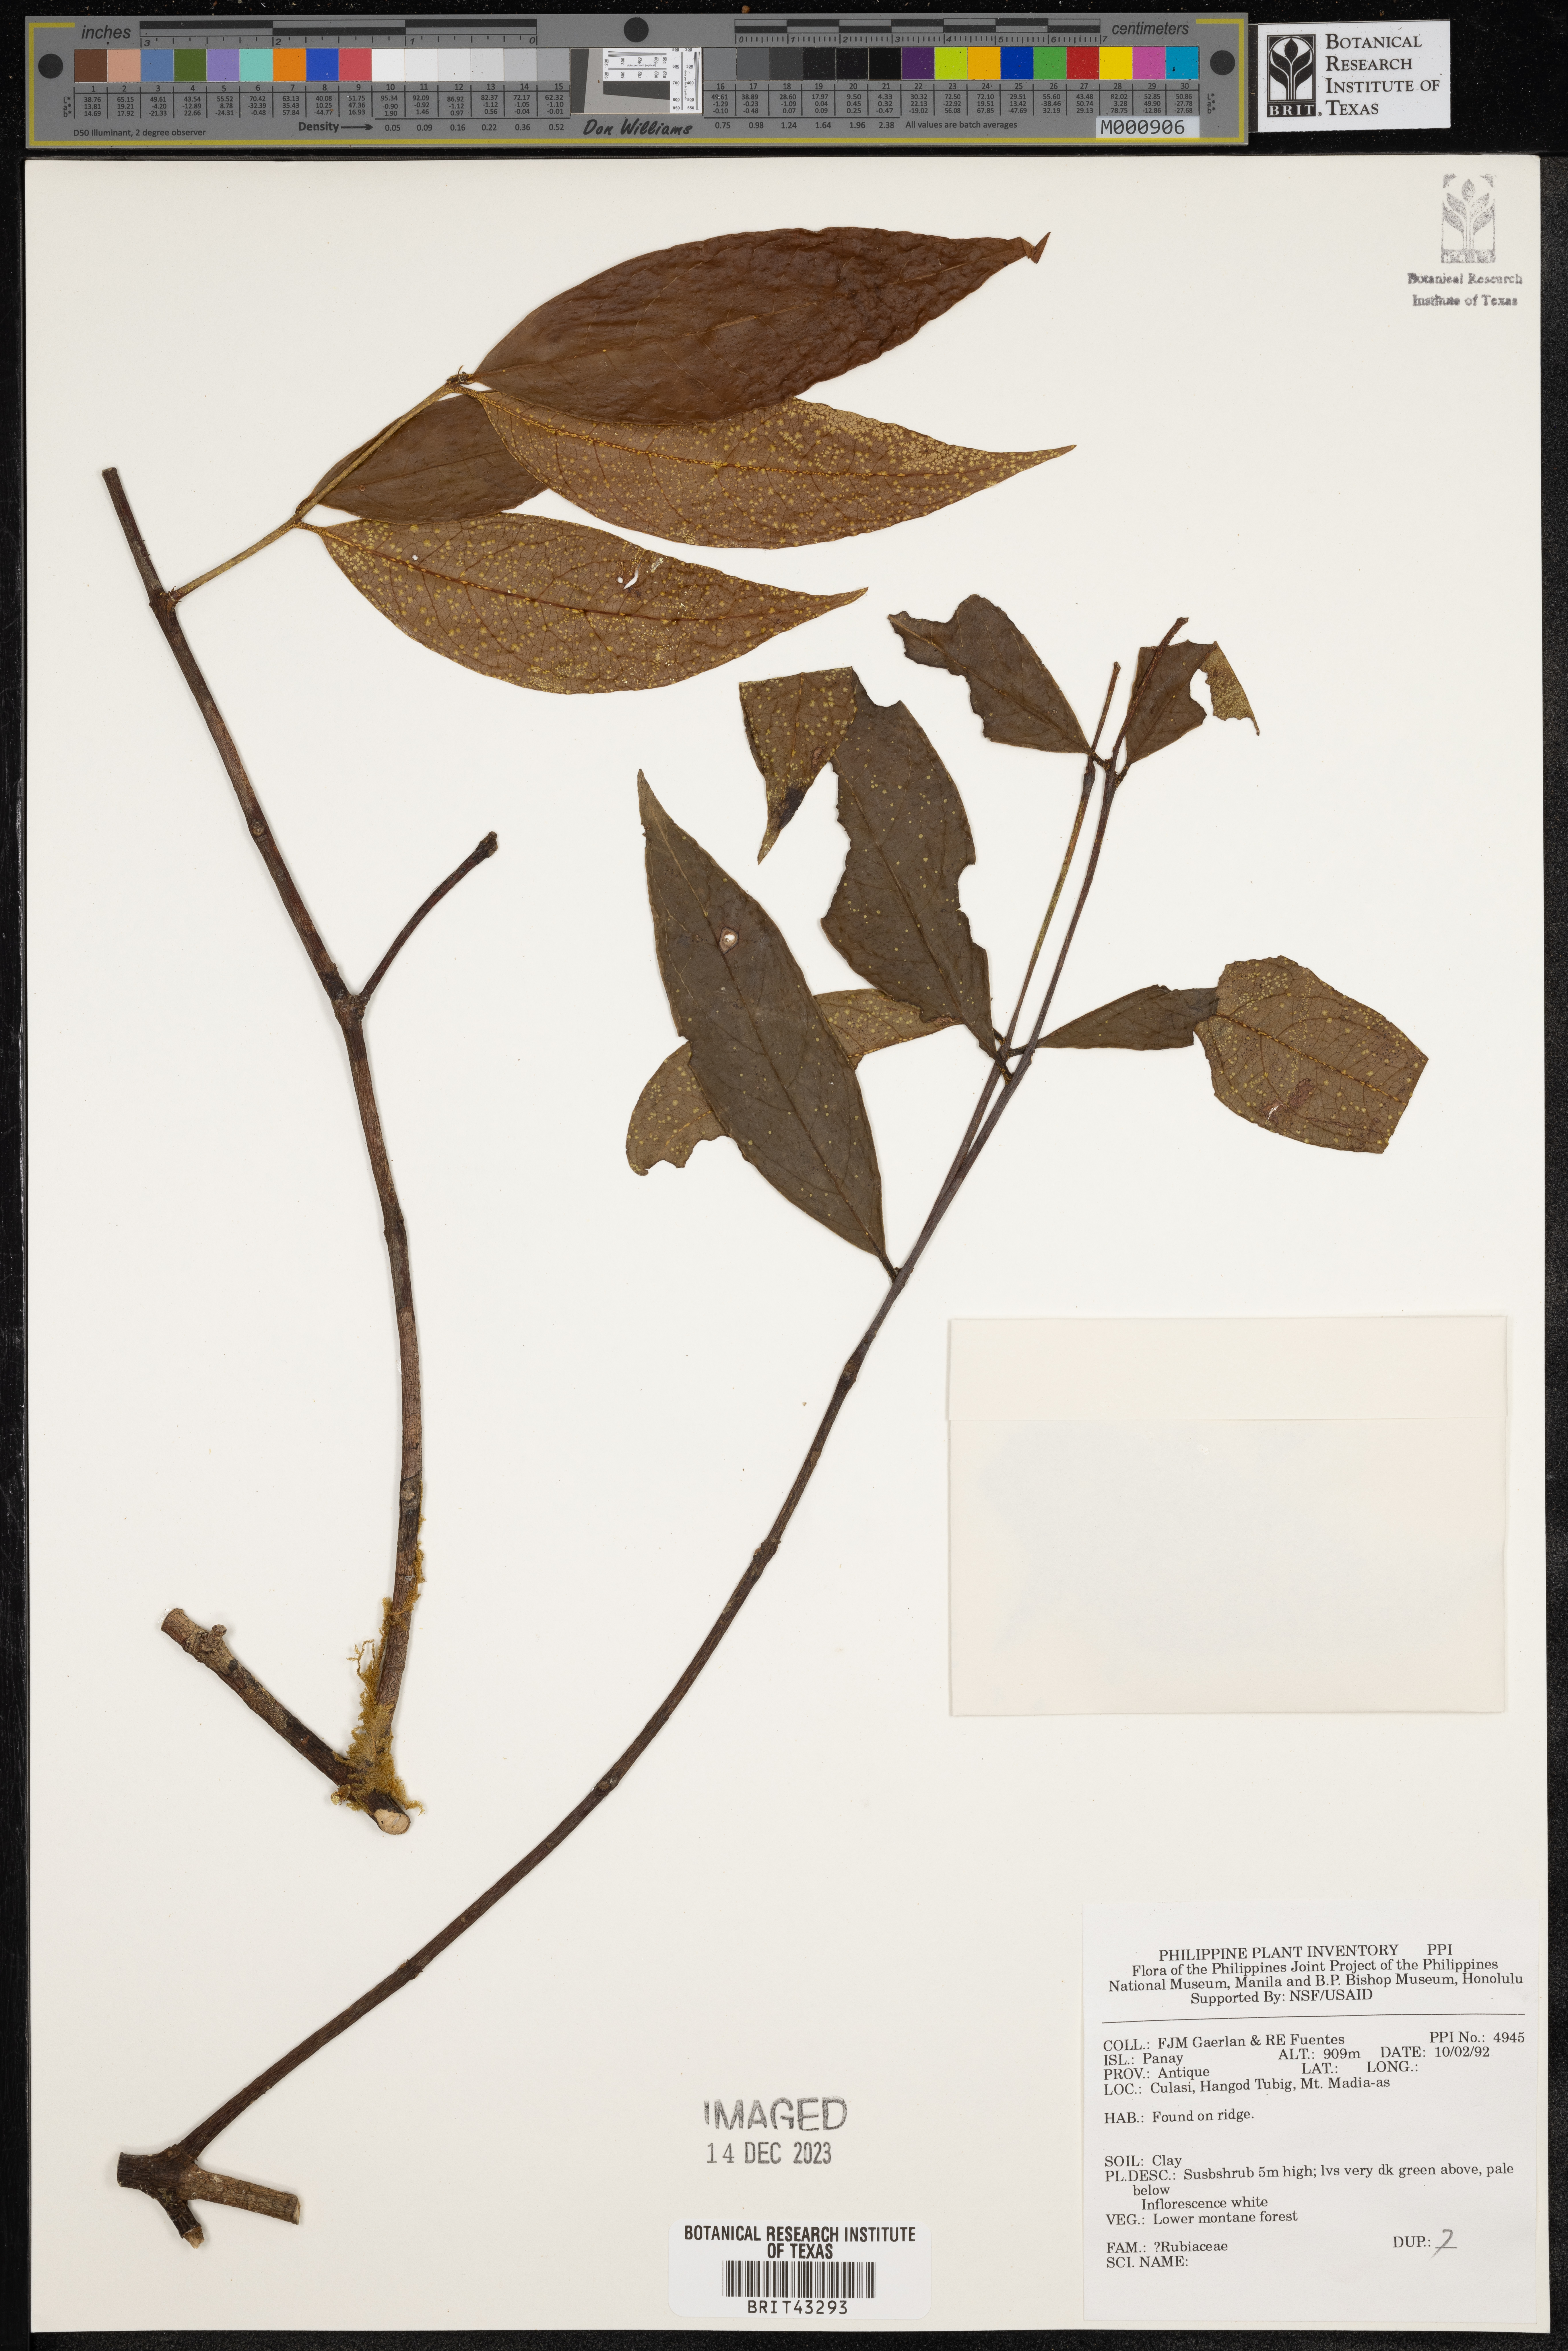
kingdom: Plantae
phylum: Tracheophyta
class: Magnoliopsida
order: Gentianales
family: Rubiaceae
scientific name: Rubiaceae
